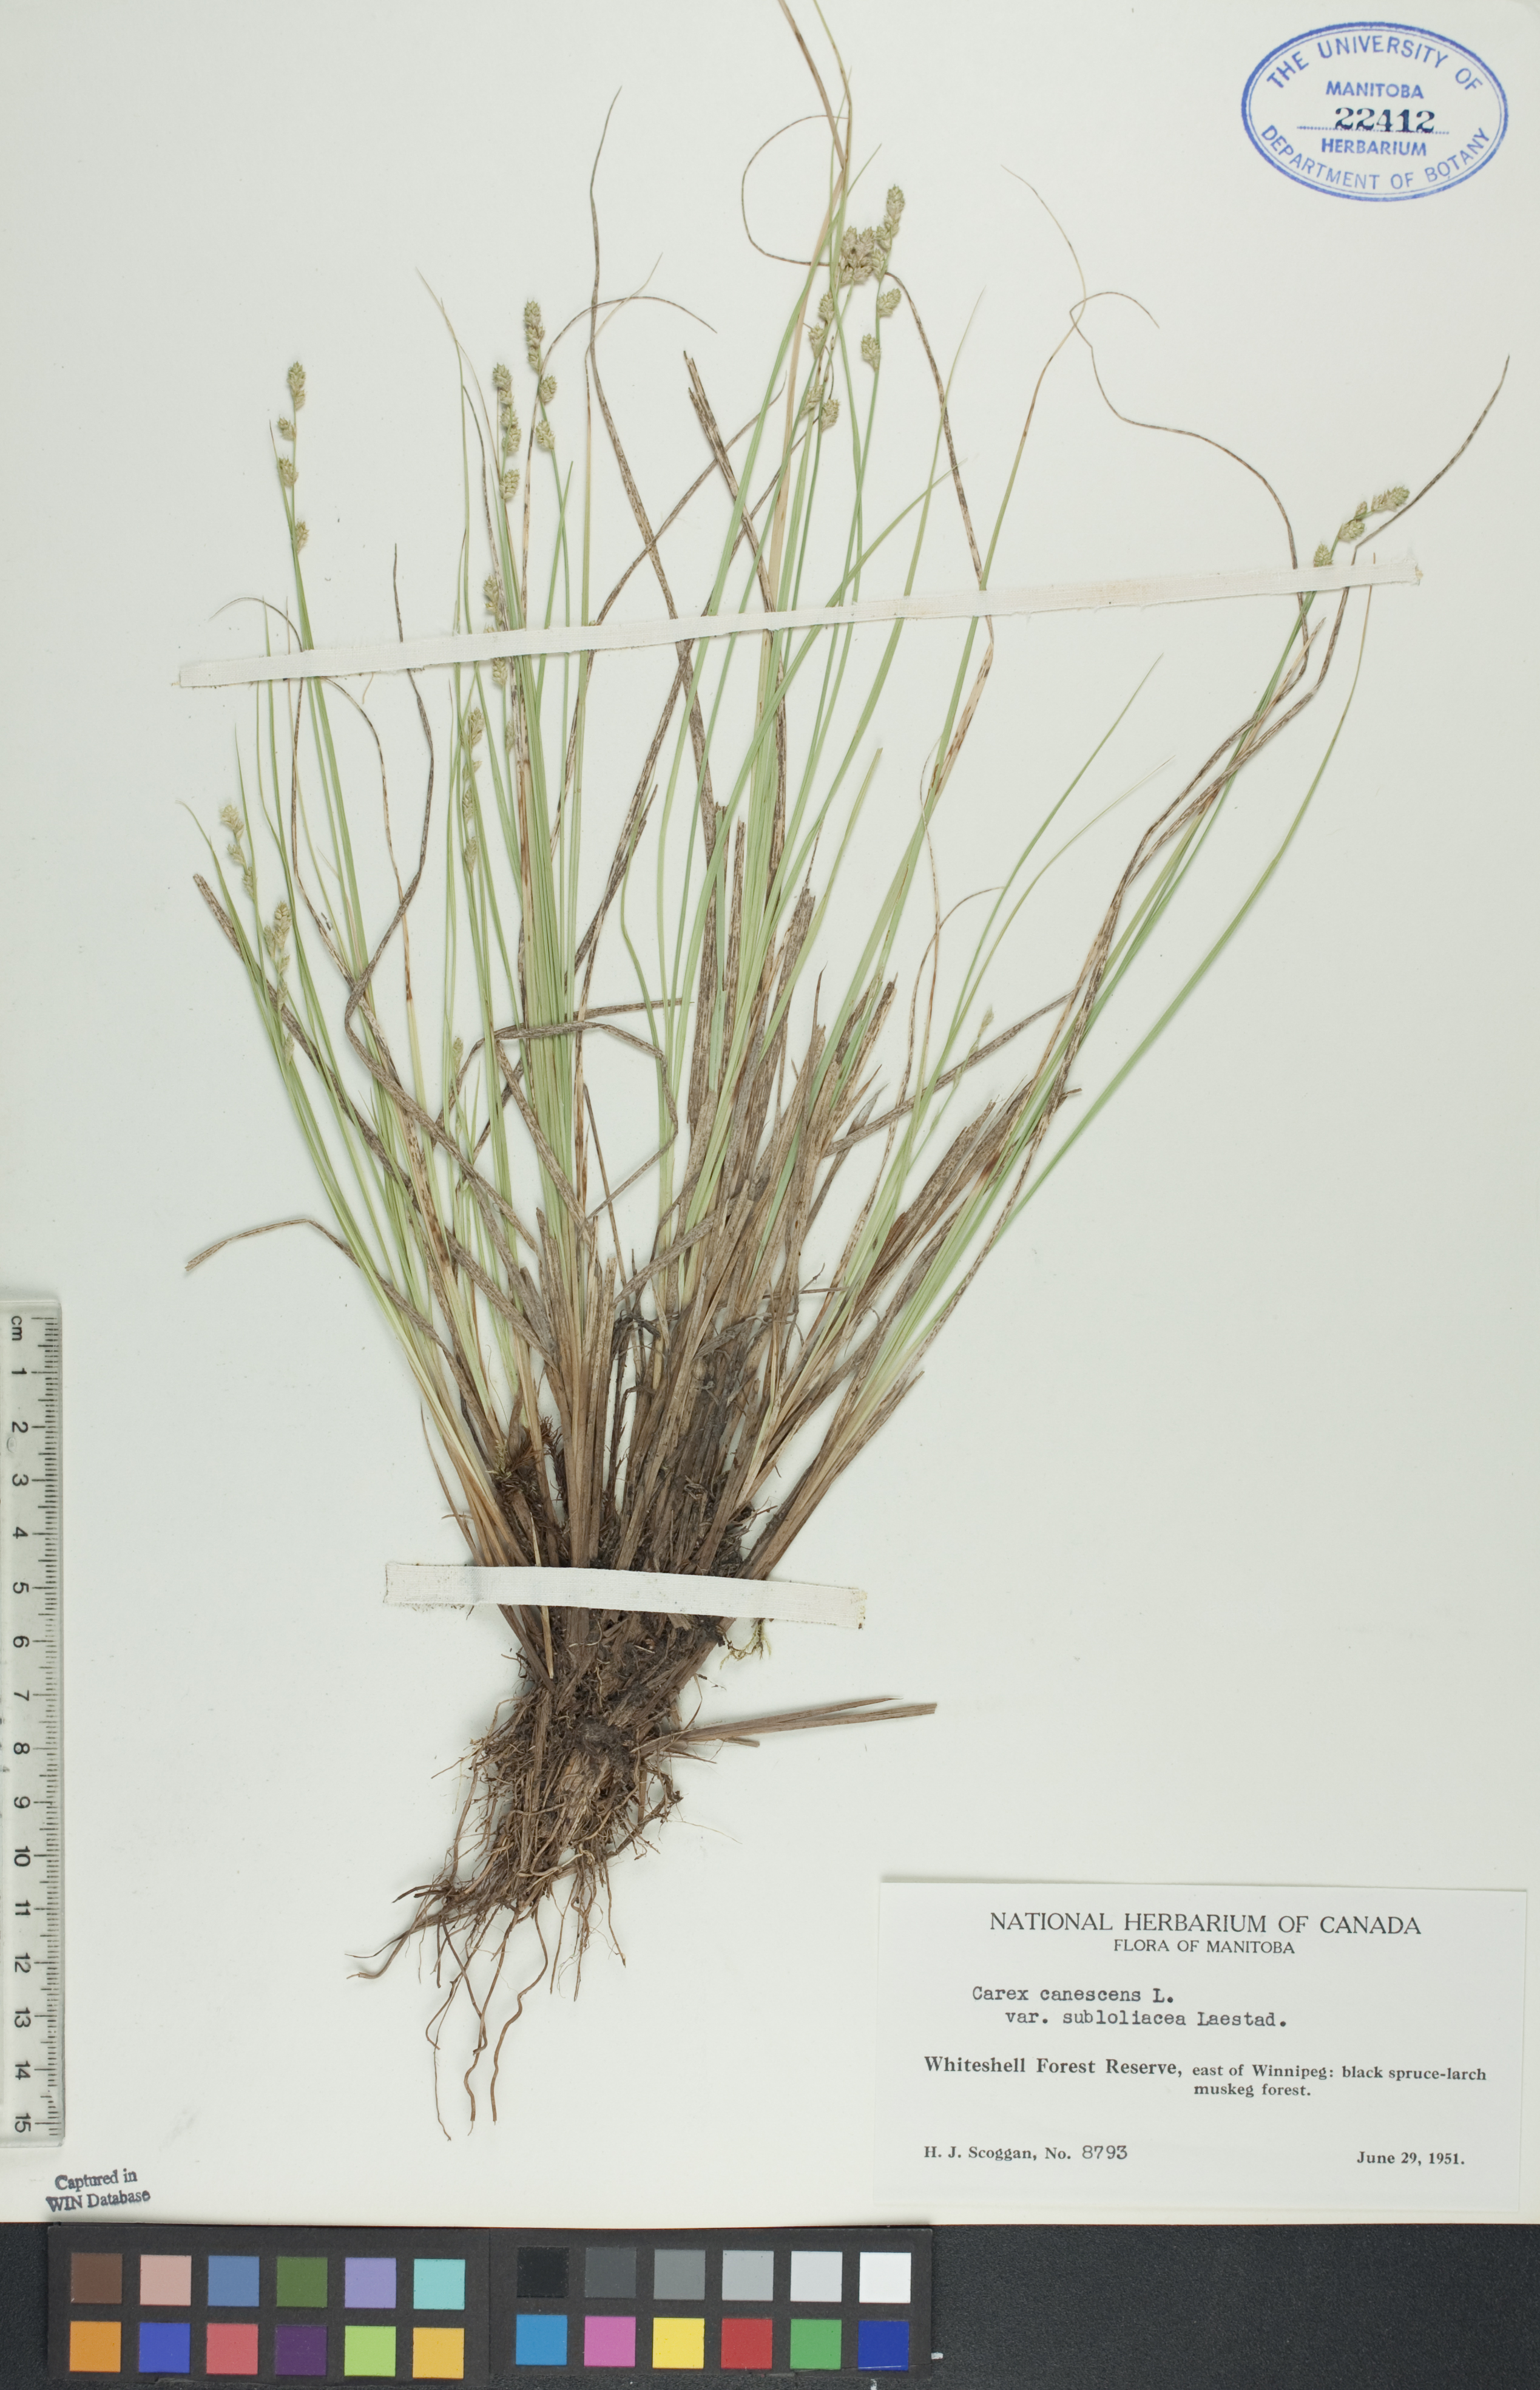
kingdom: Plantae
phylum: Tracheophyta
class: Liliopsida
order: Poales
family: Cyperaceae
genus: Carex
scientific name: Carex lapponica
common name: Lapland sedge
